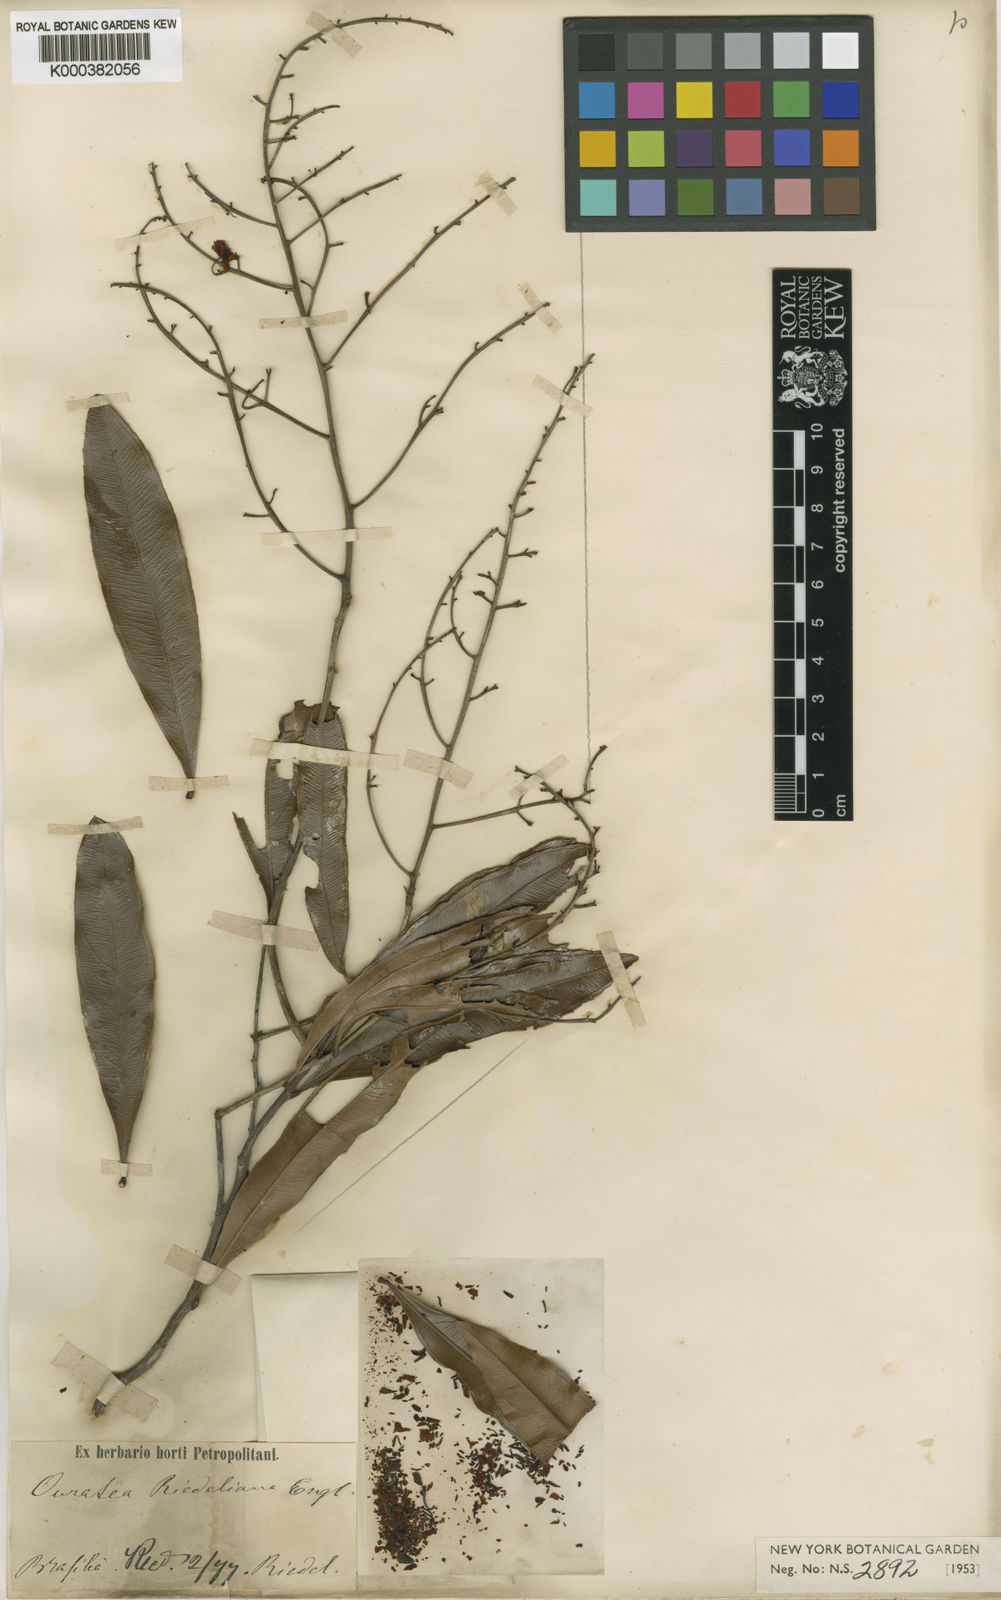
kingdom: Plantae
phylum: Tracheophyta
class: Magnoliopsida
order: Malpighiales
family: Ochnaceae
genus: Ouratea
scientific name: Ouratea riedeliana
